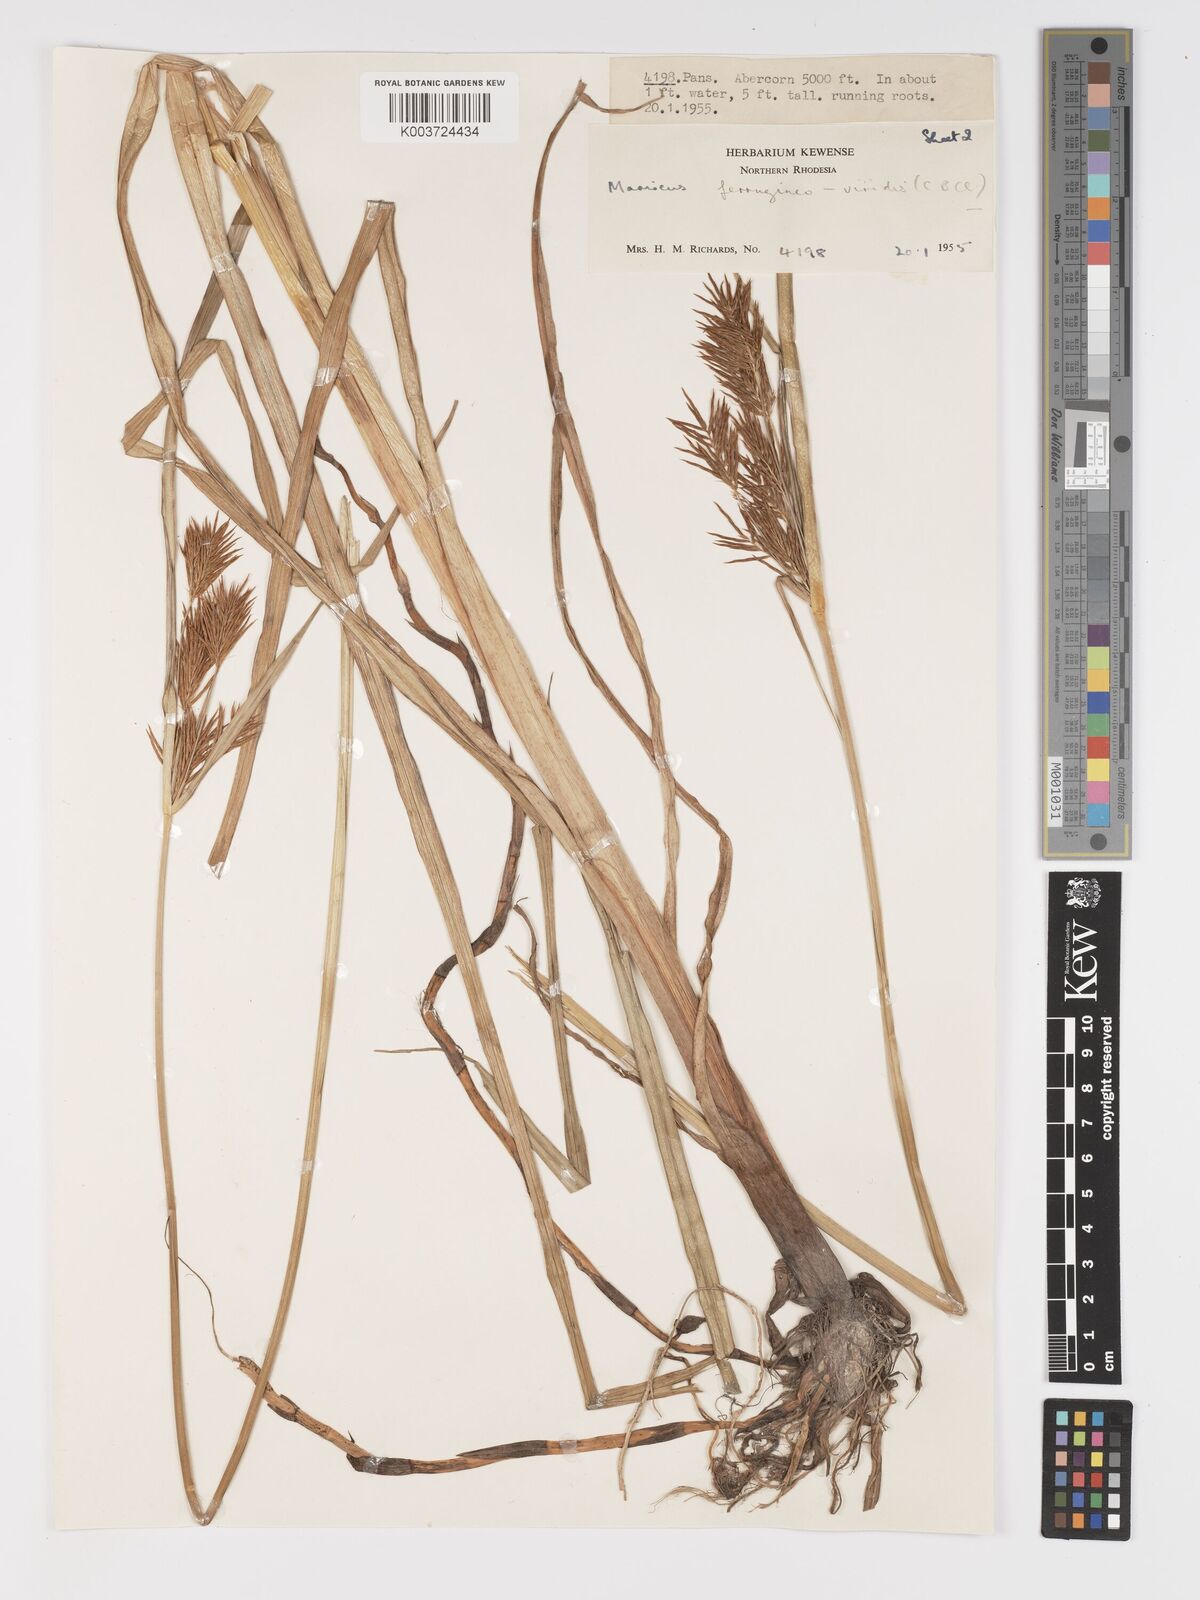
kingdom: Plantae
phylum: Tracheophyta
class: Liliopsida
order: Poales
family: Cyperaceae
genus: Cyperus
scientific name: Cyperus ferrugineoviridis
